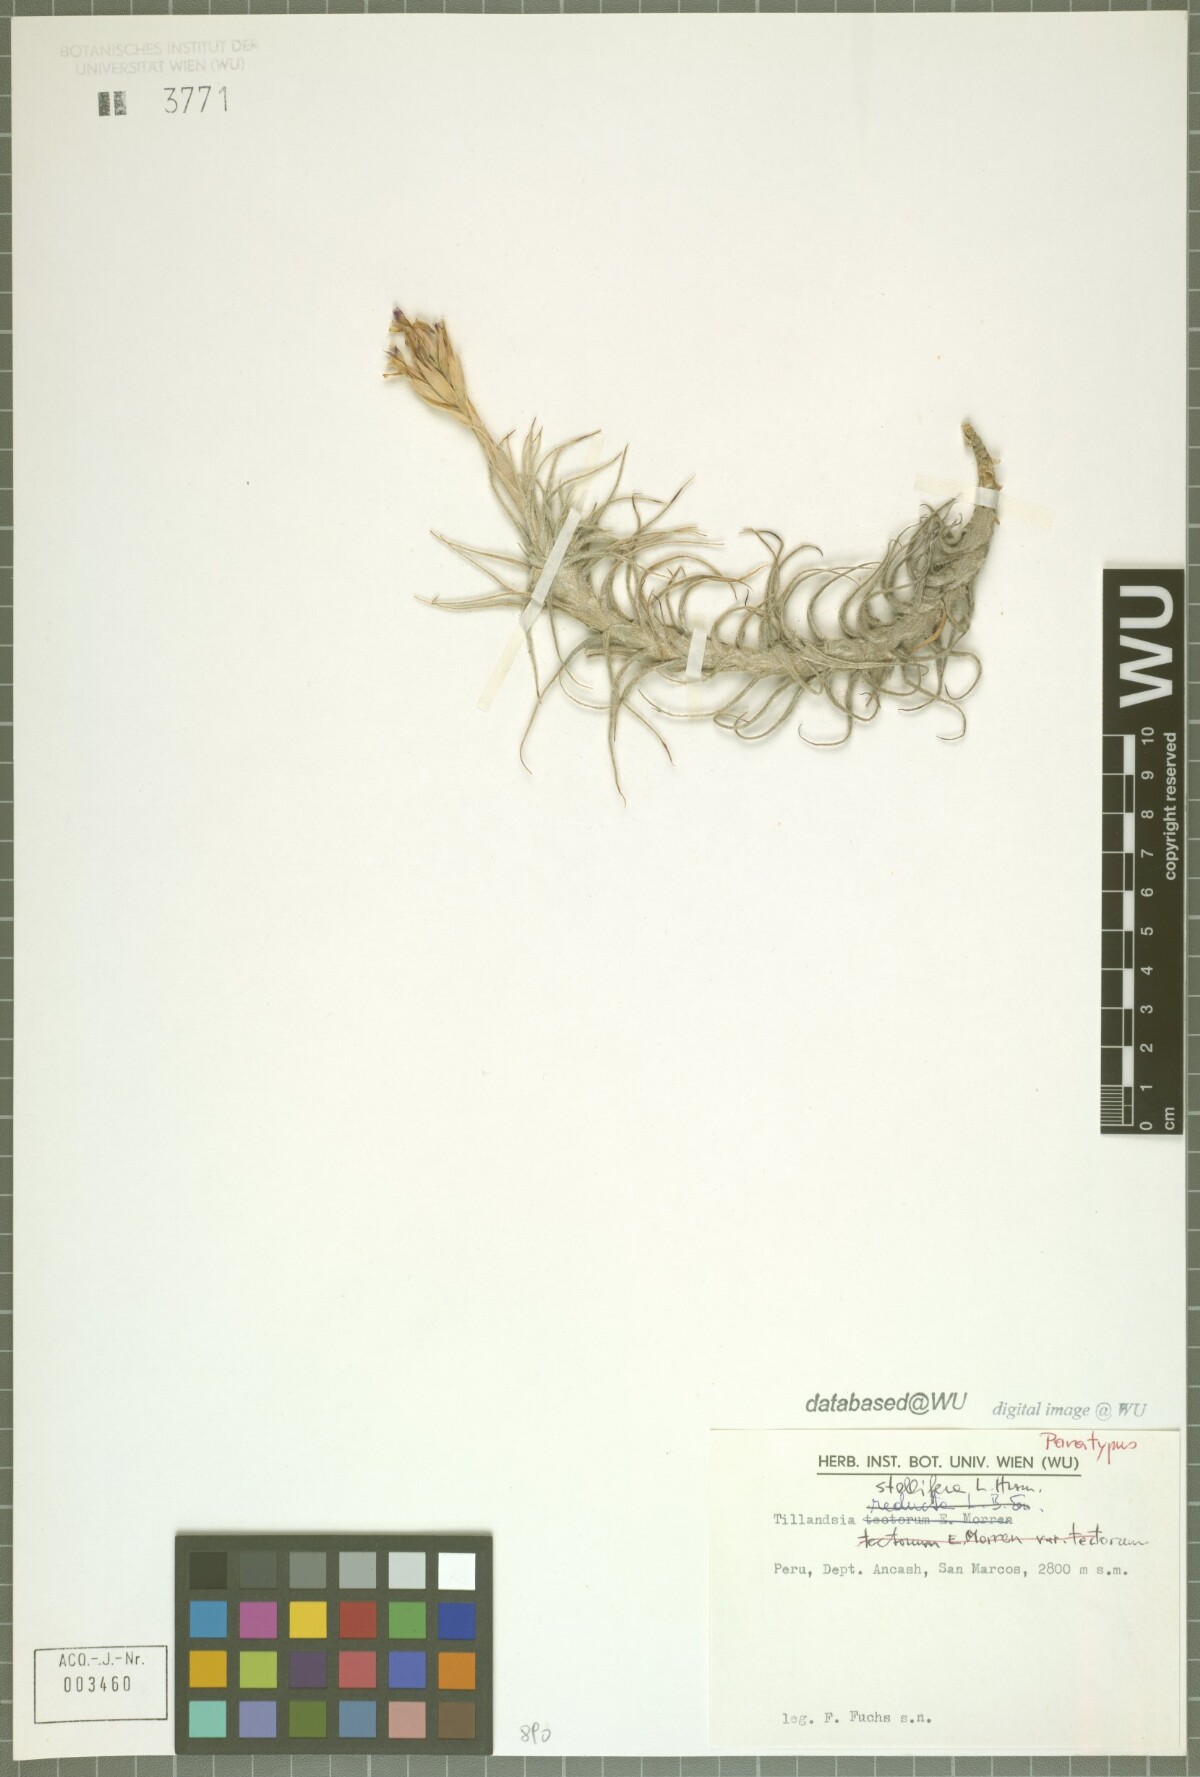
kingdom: Plantae
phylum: Tracheophyta
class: Liliopsida
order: Poales
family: Bromeliaceae
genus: Tillandsia
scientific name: Tillandsia stellifera
